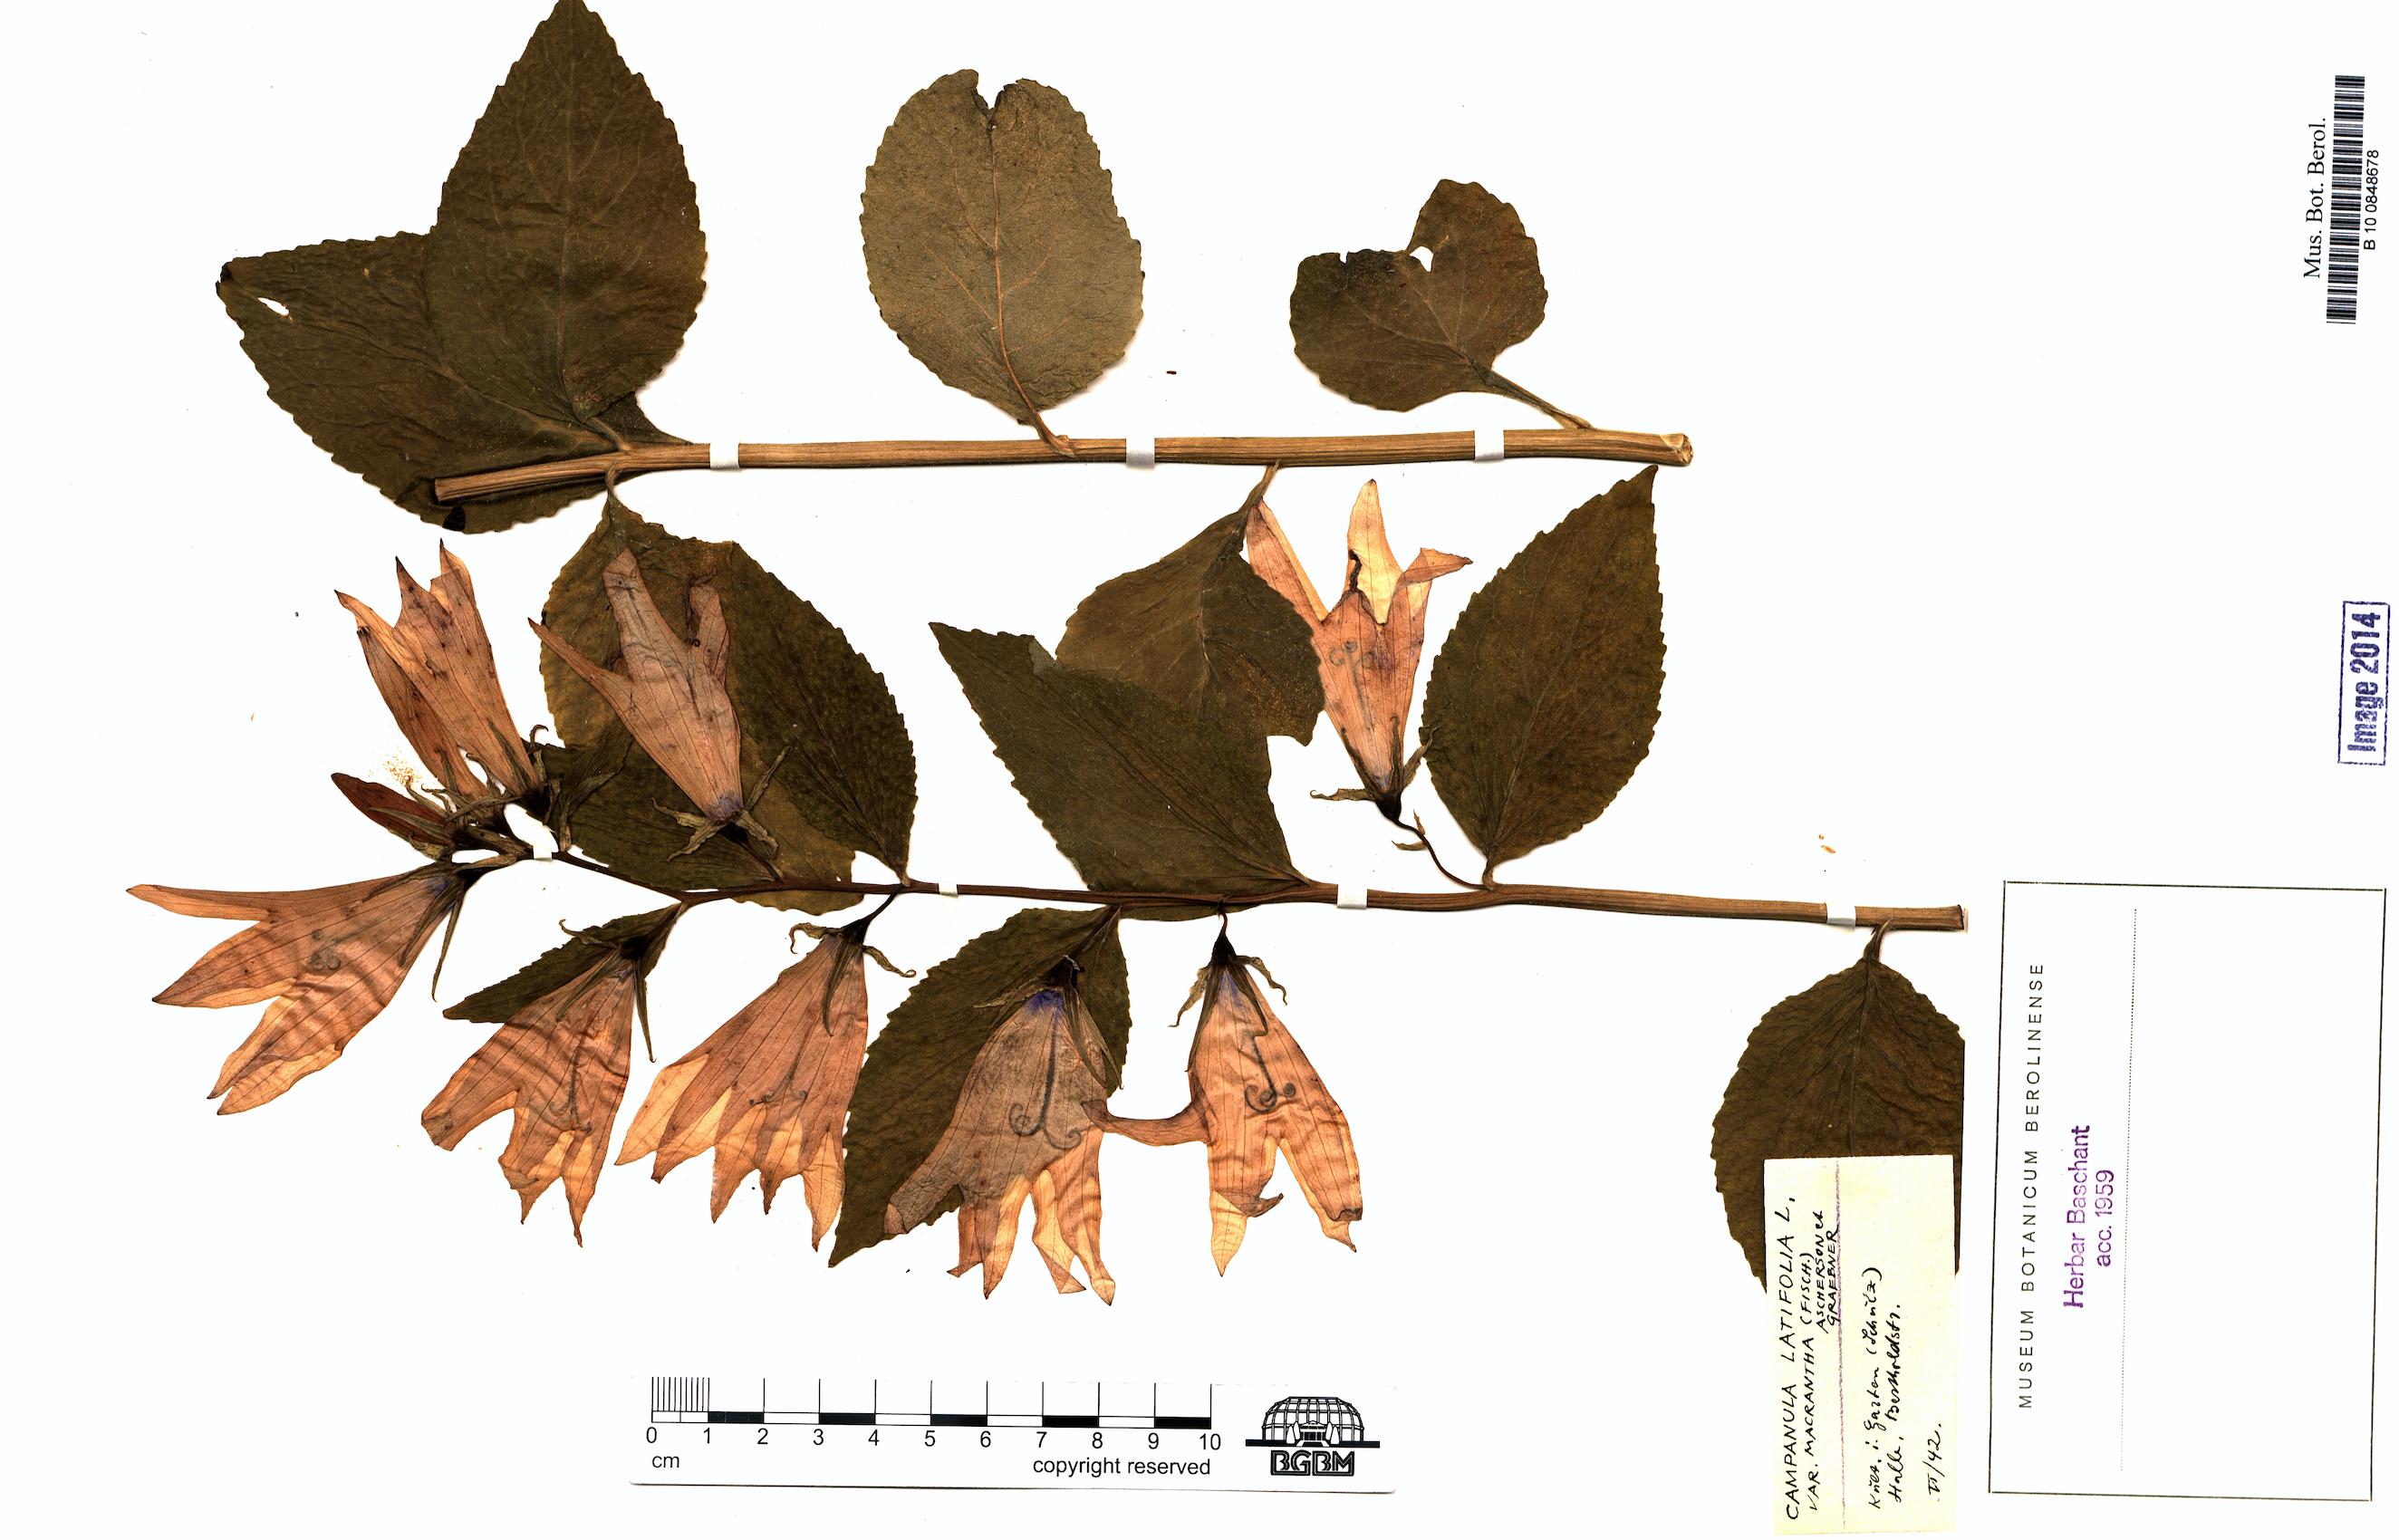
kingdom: Plantae
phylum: Tracheophyta
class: Magnoliopsida
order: Asterales
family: Campanulaceae
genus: Campanula
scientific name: Campanula latifolia
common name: Giant bellflower
